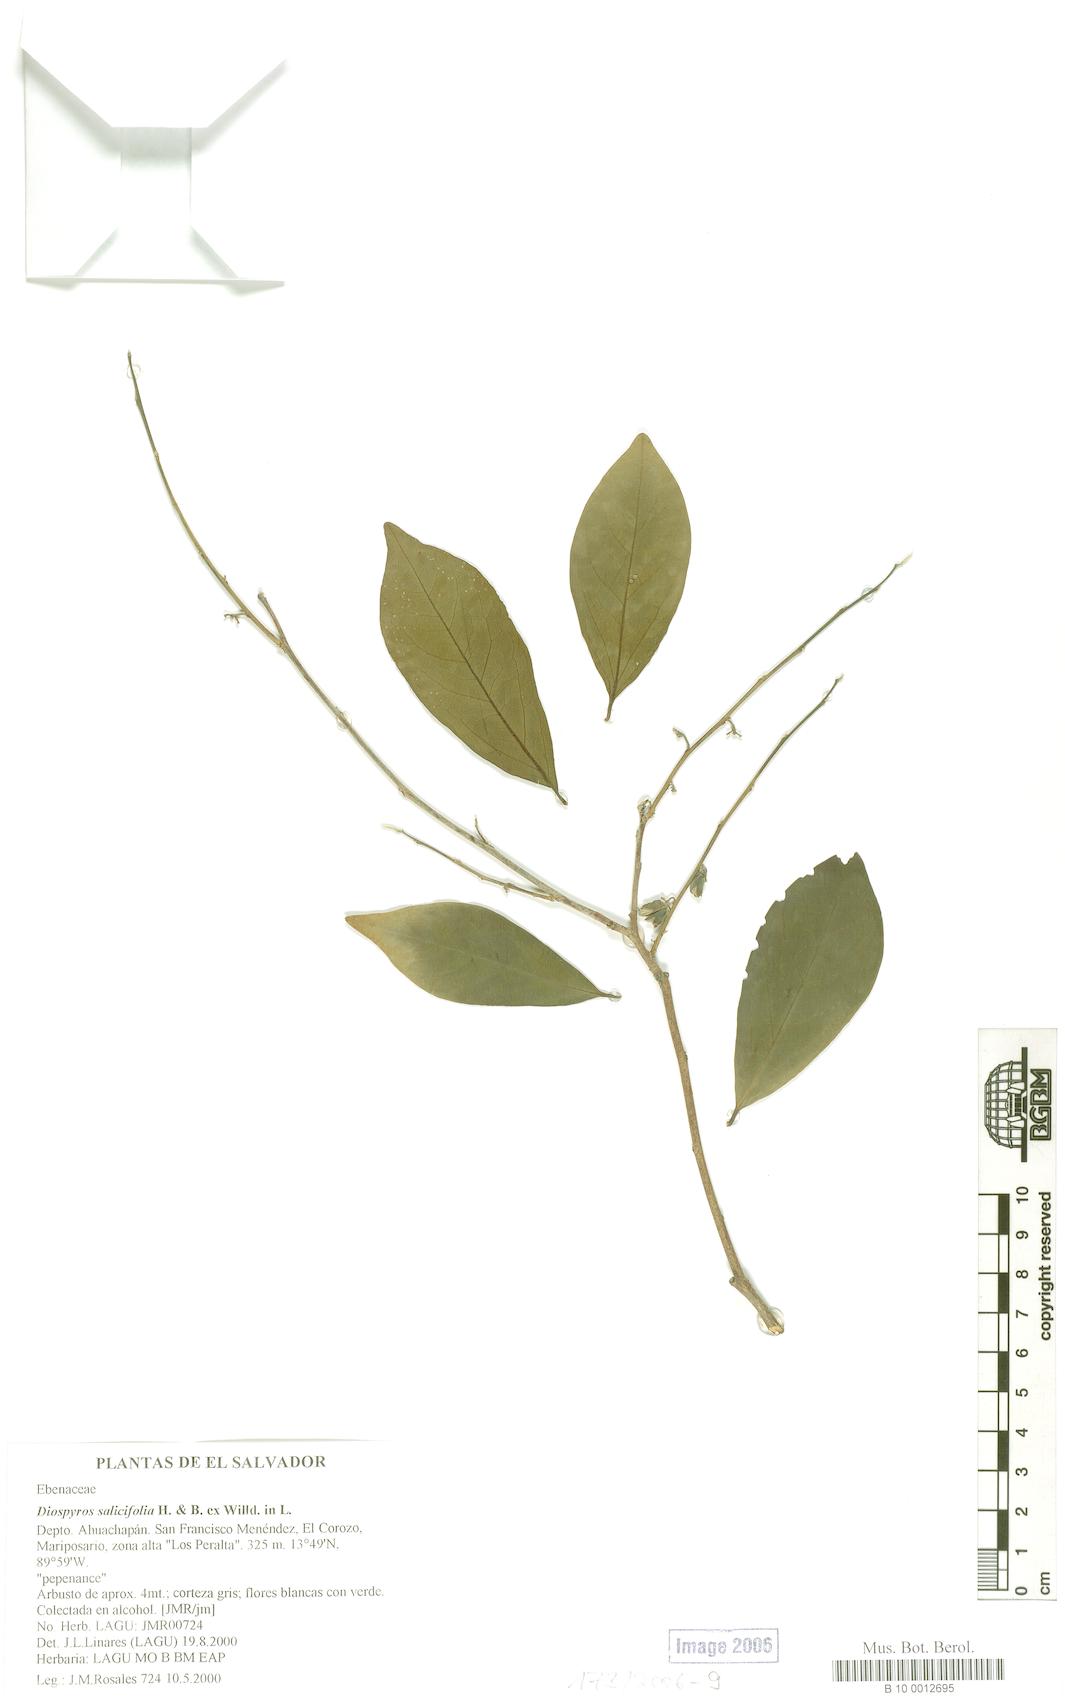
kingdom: Plantae
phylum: Tracheophyta
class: Magnoliopsida
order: Ericales
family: Ebenaceae
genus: Diospyros
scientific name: Diospyros salicifolia
